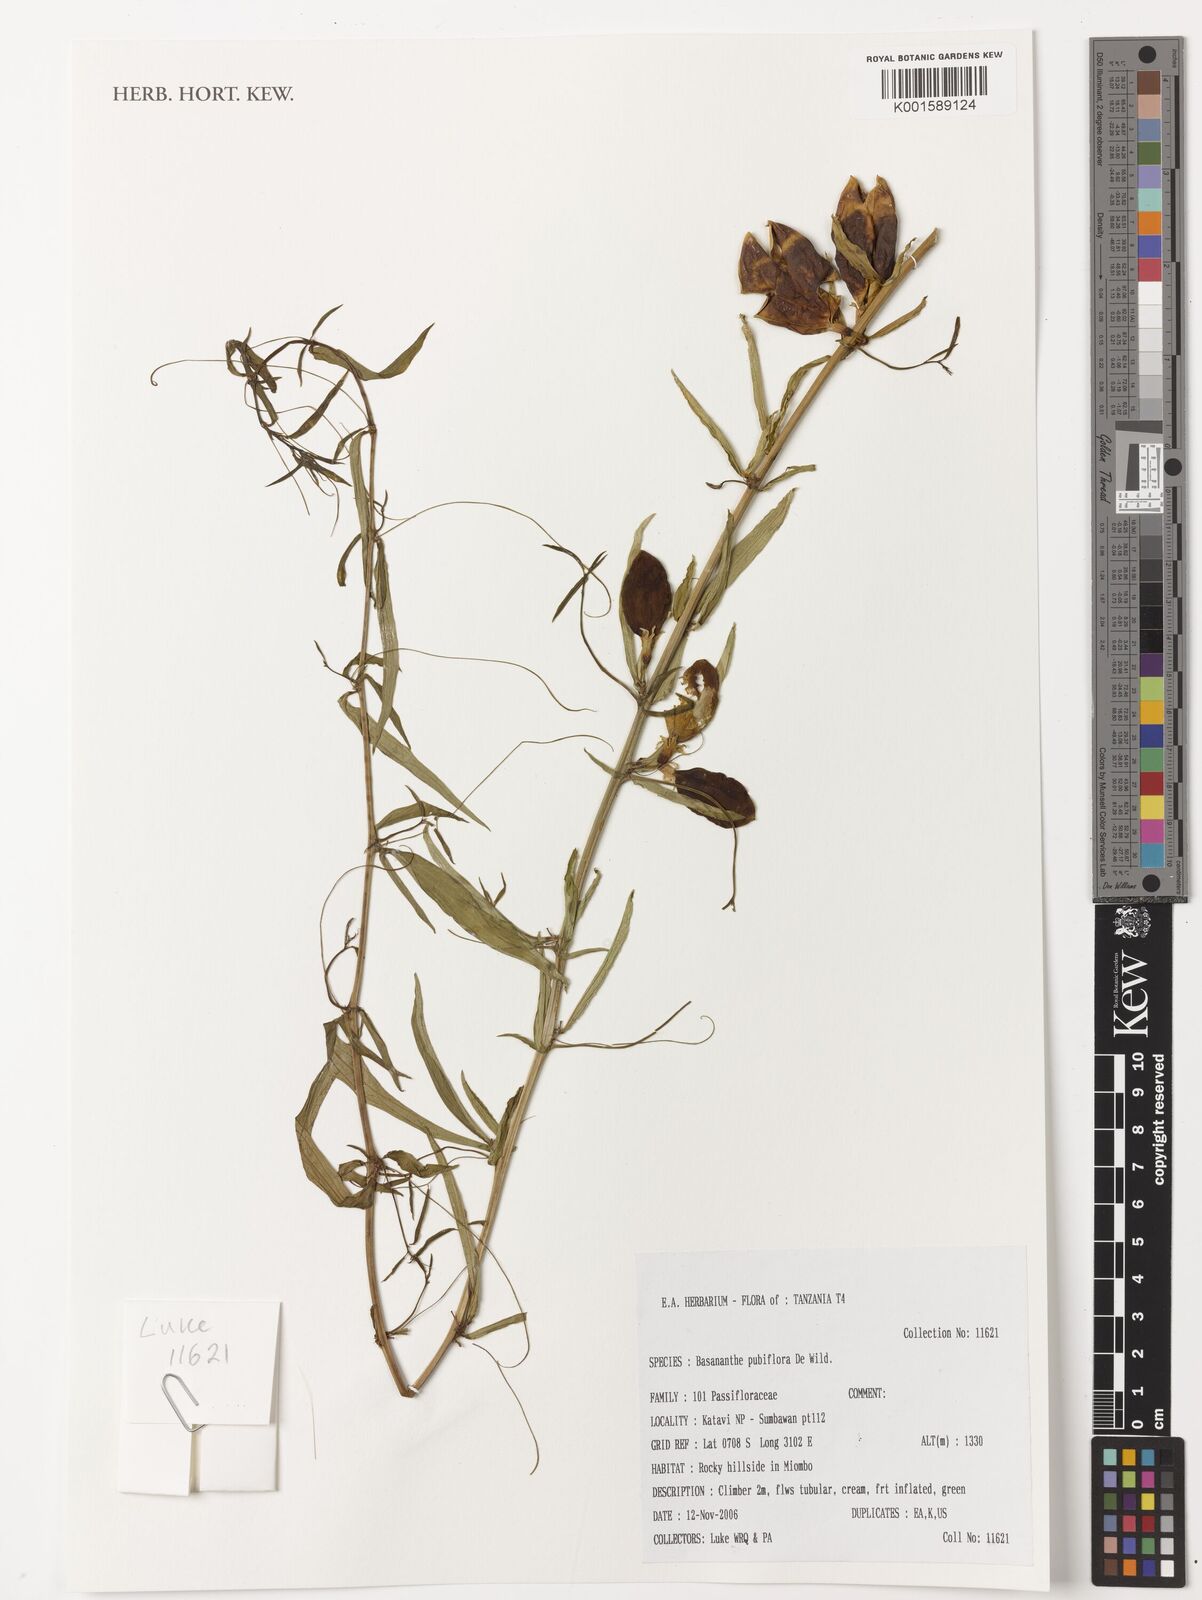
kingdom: Plantae
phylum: Tracheophyta
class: Magnoliopsida
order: Malpighiales
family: Passifloraceae
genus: Basananthe
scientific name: Basananthe pubiflora
